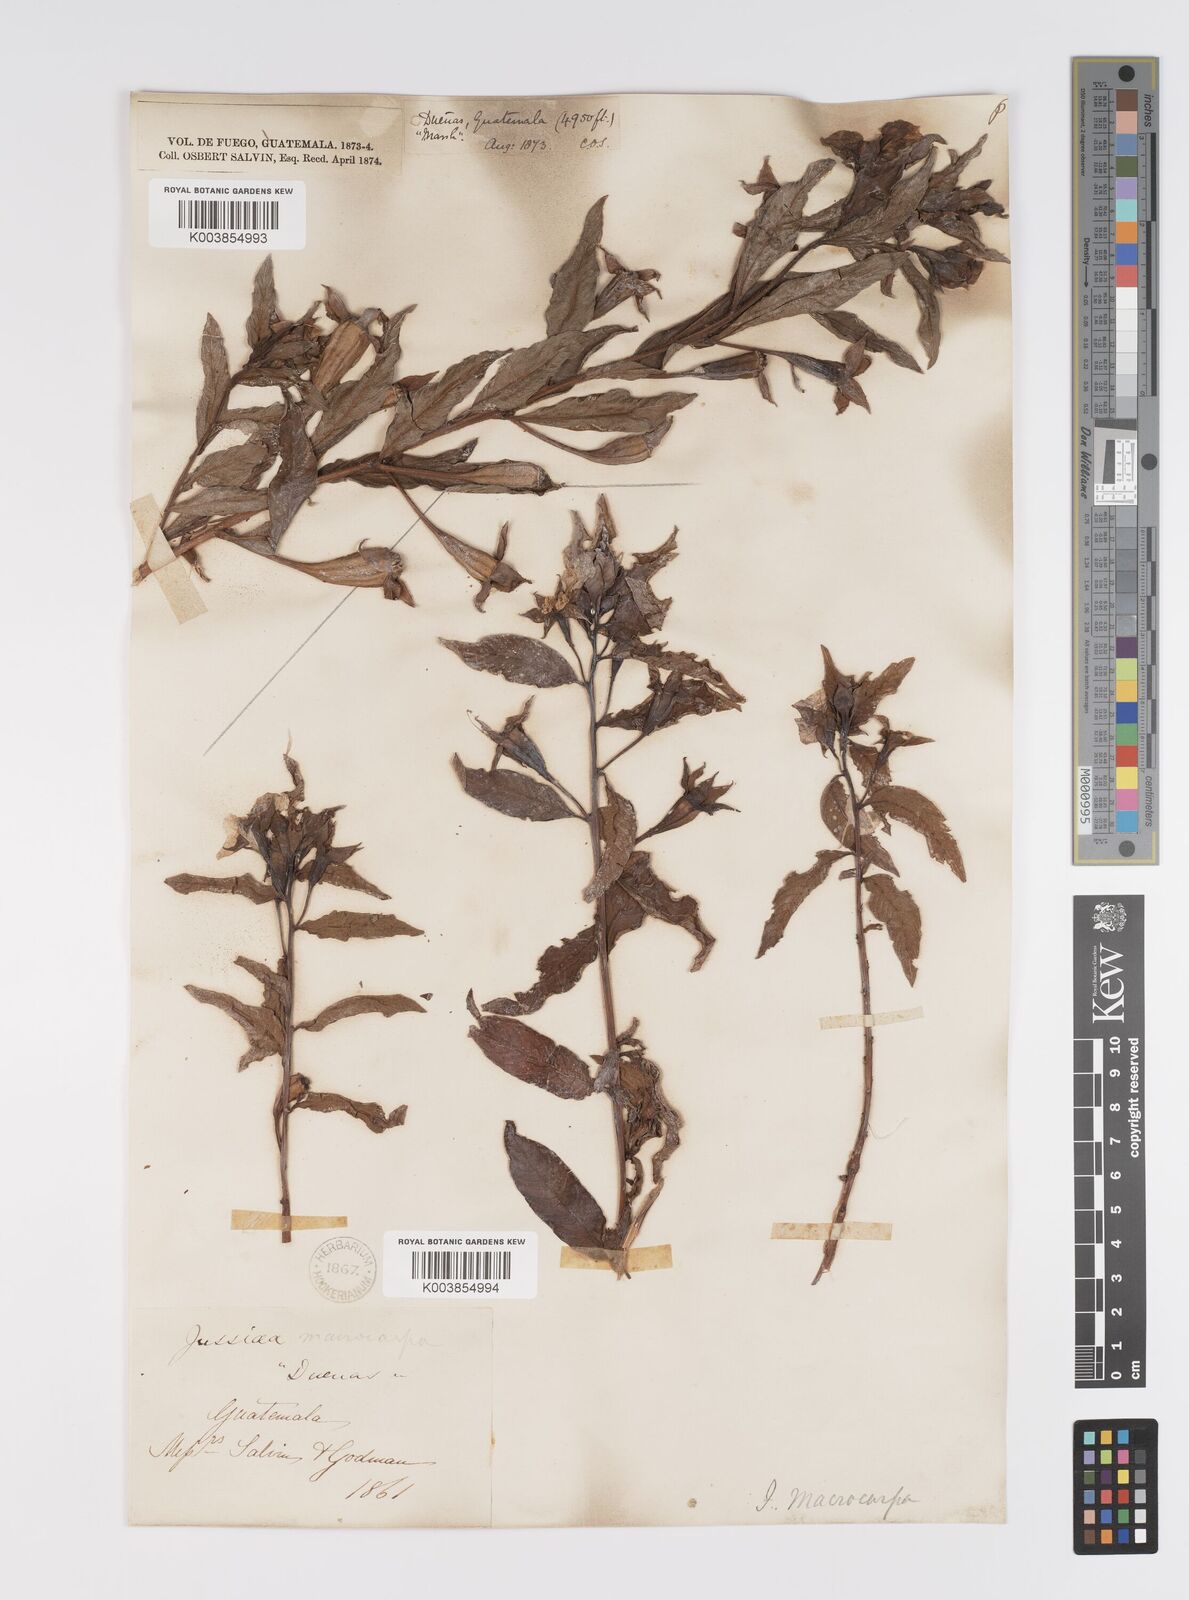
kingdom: Plantae
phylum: Tracheophyta
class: Magnoliopsida
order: Myrtales
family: Onagraceae
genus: Ludwigia
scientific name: Ludwigia peruviana
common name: Peruvian primrose-willow
